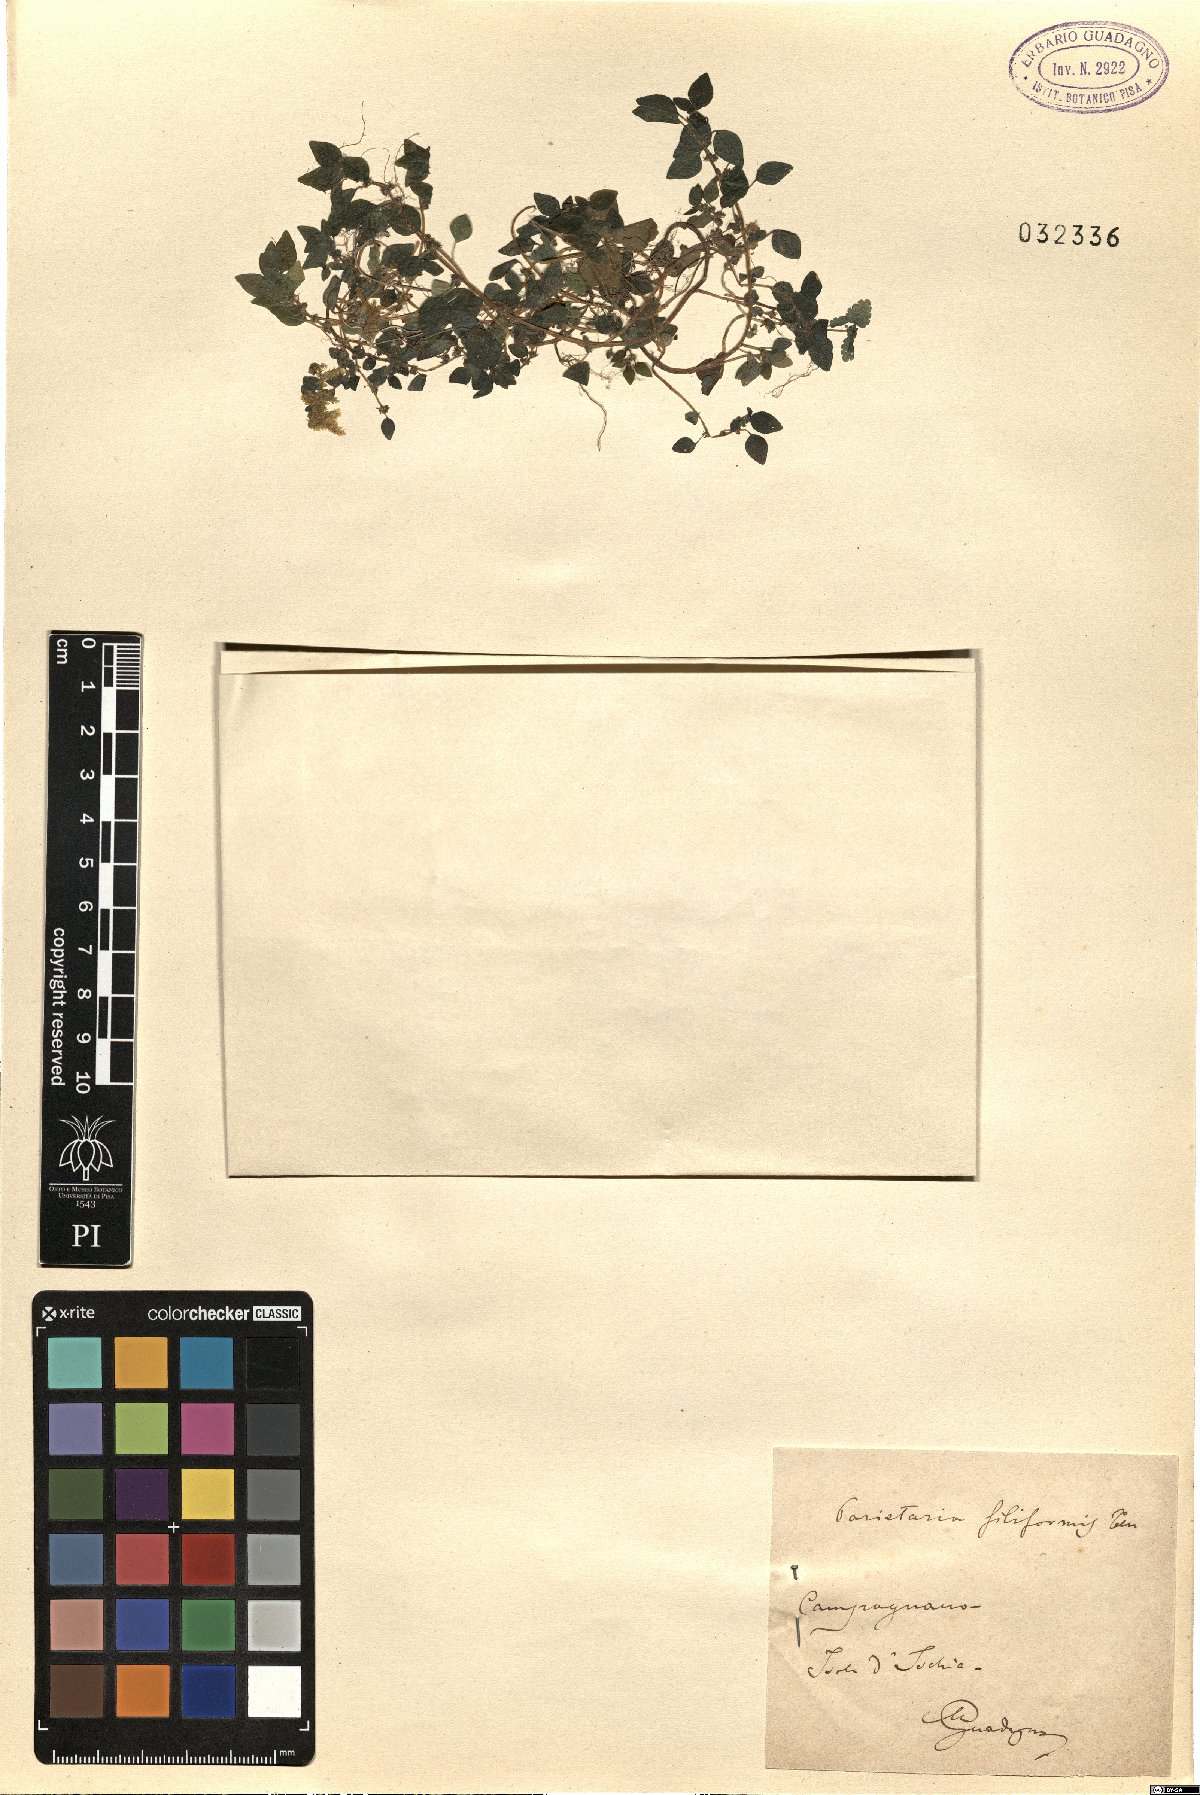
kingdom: Plantae
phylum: Tracheophyta
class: Magnoliopsida
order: Rosales
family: Urticaceae
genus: Parietaria
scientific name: Parietaria lusitanica
